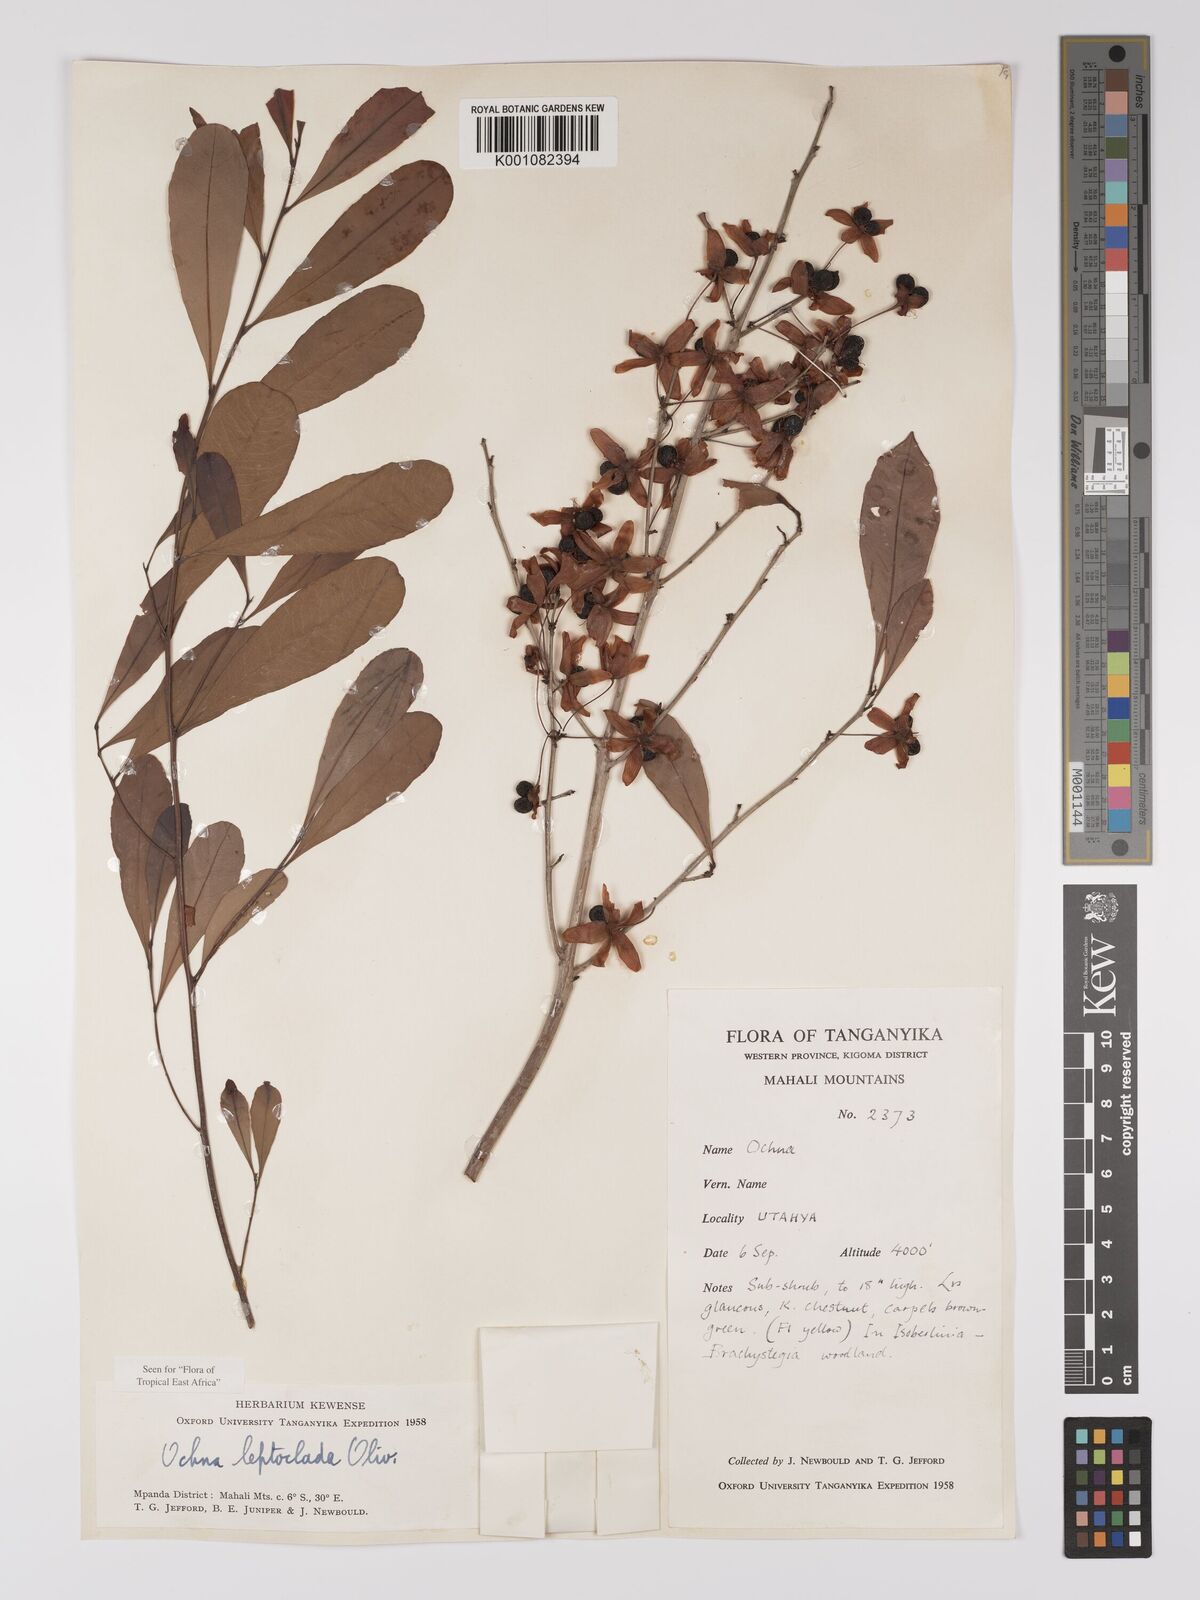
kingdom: Plantae
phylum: Tracheophyta
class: Magnoliopsida
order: Malpighiales
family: Ochnaceae
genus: Ochna
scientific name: Ochna leptoclada
